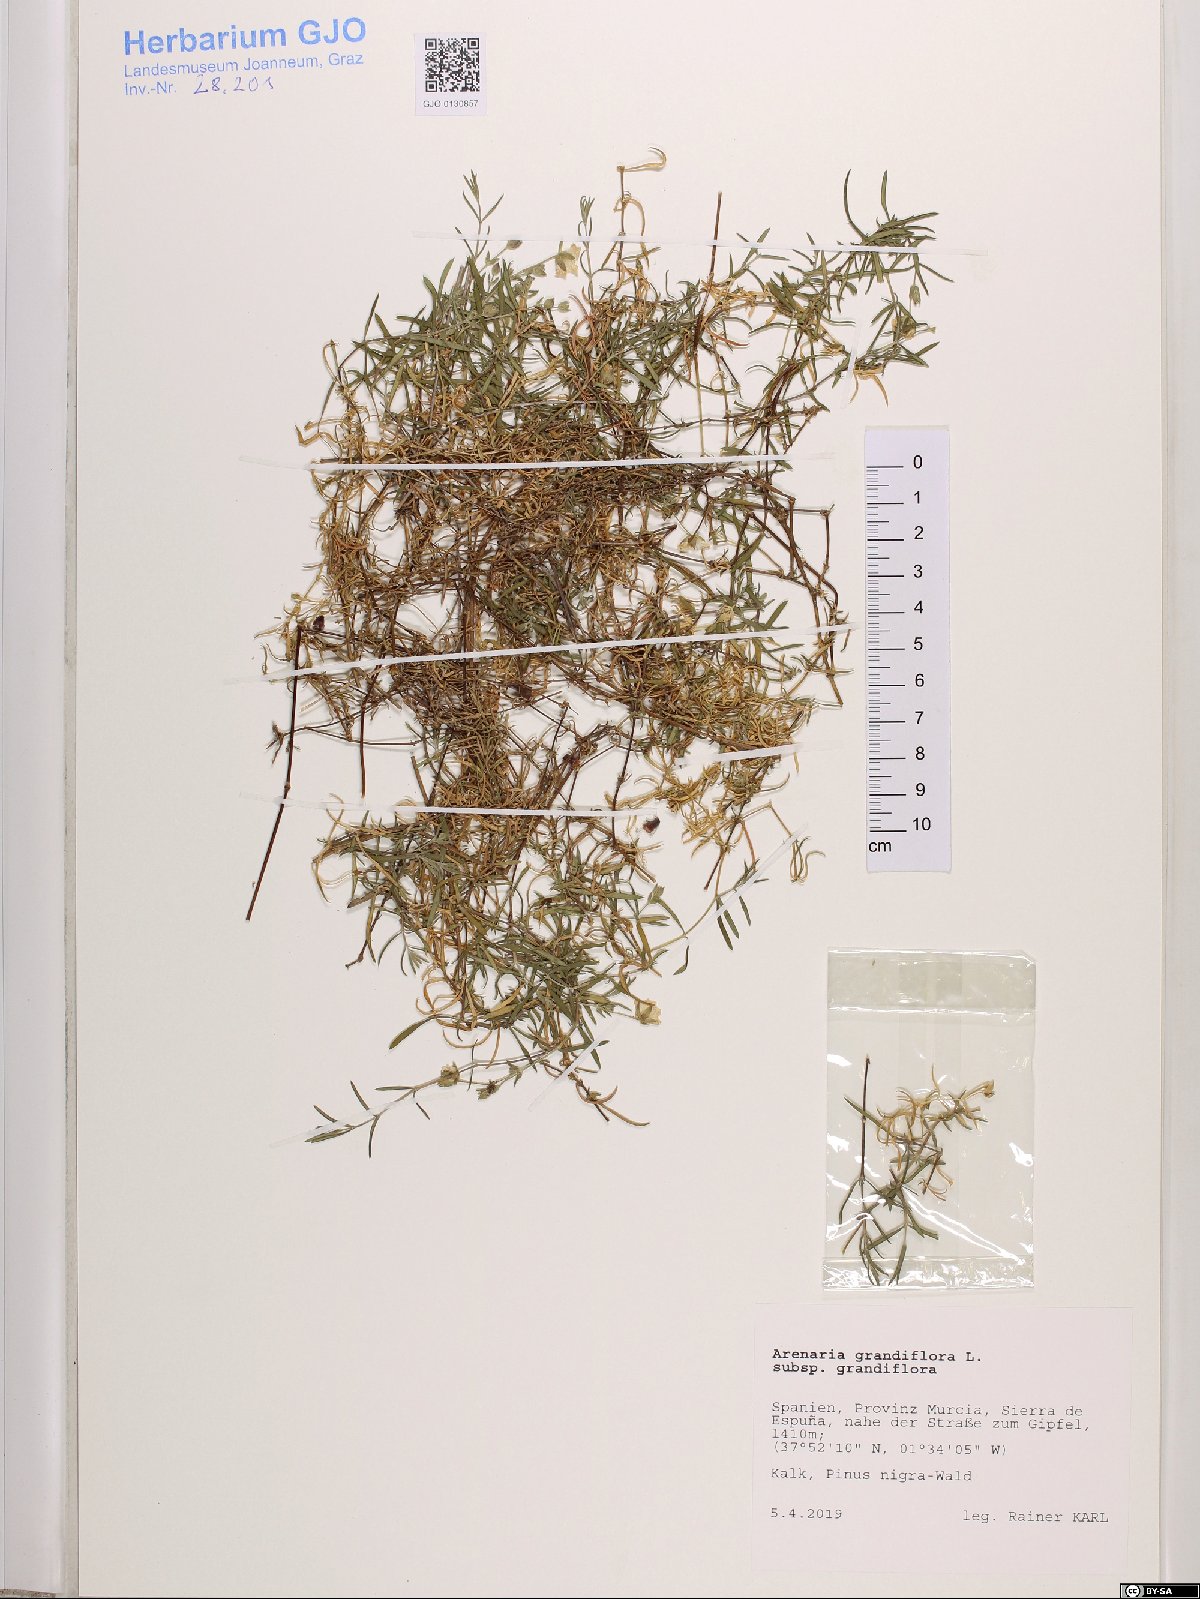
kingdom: Plantae
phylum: Tracheophyta
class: Magnoliopsida
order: Caryophyllales
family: Caryophyllaceae
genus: Arenaria
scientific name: Arenaria grandiflora
